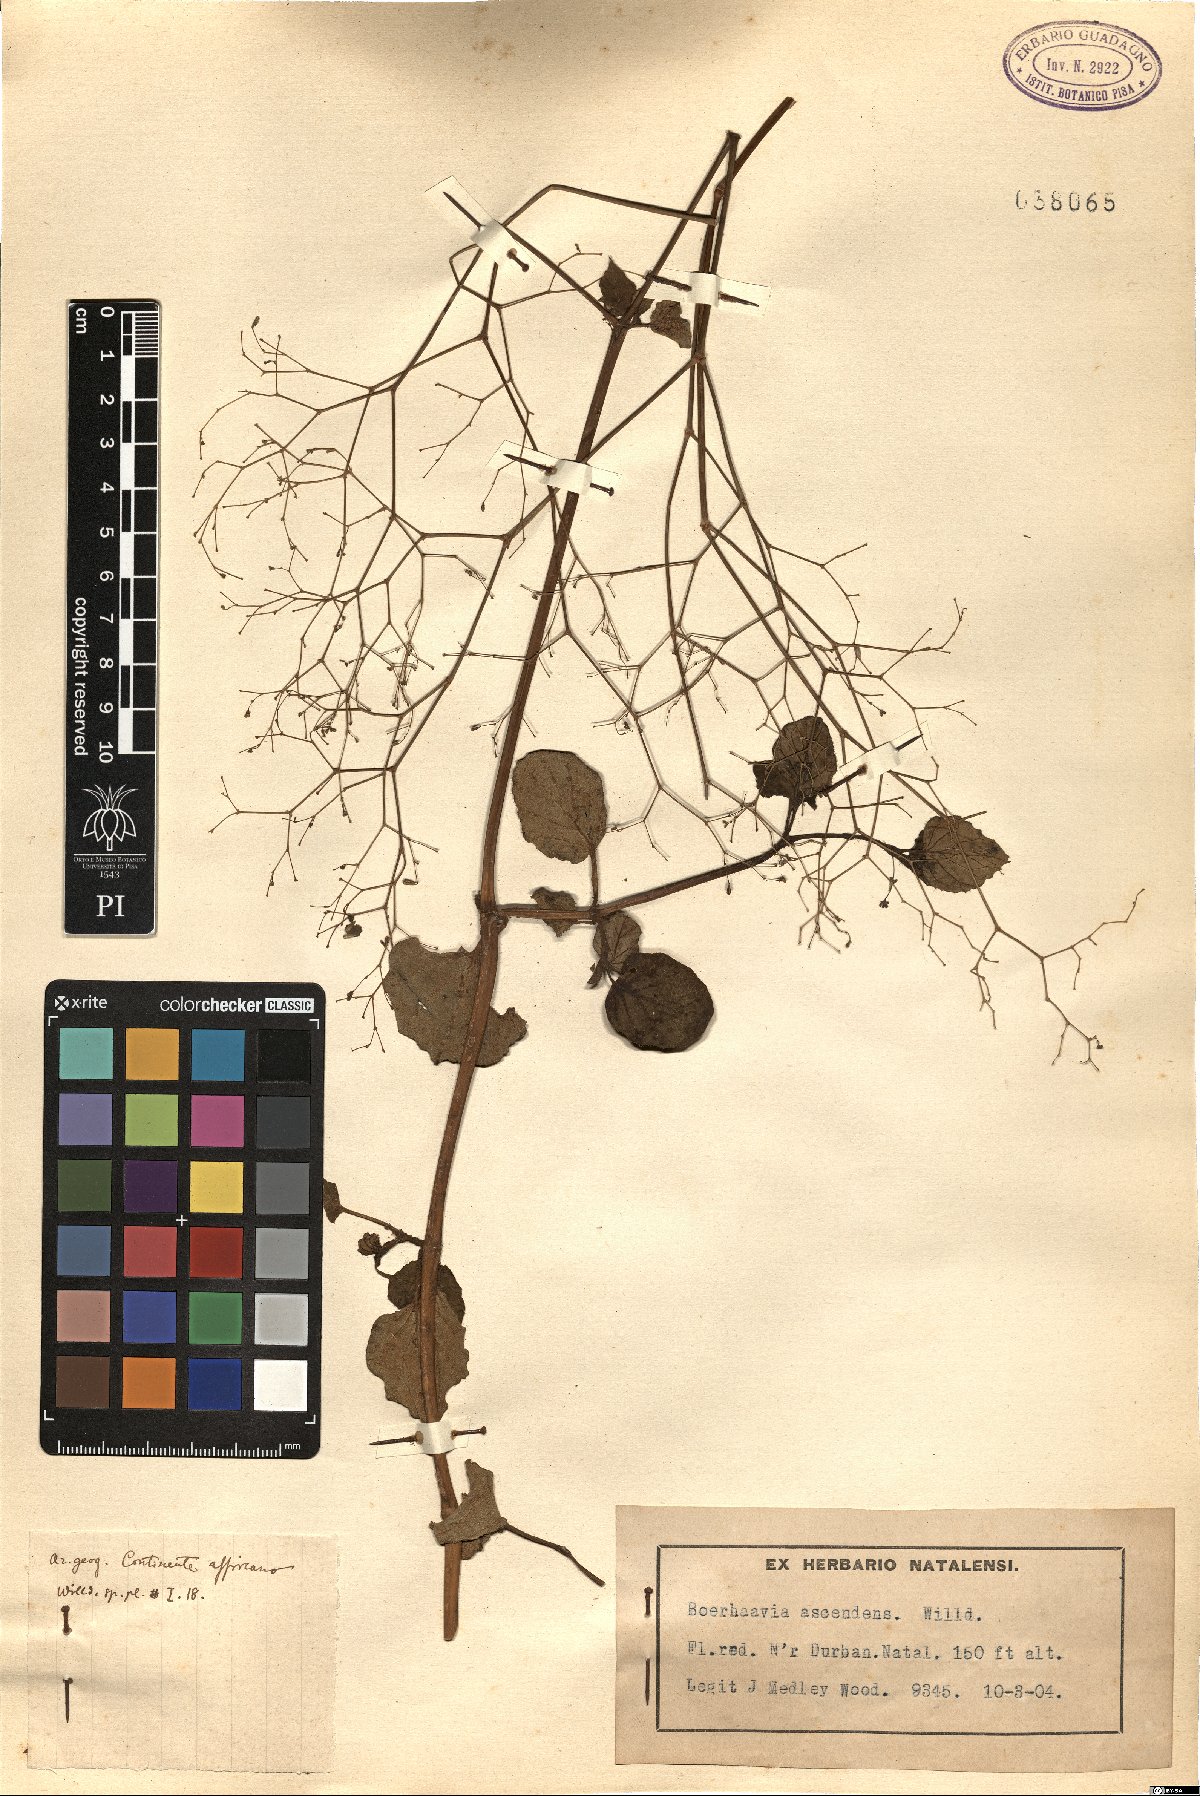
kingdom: Plantae
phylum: Tracheophyta
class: Magnoliopsida
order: Caryophyllales
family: Nyctaginaceae
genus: Boerhavia
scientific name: Boerhavia diffusa
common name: Red spiderling
